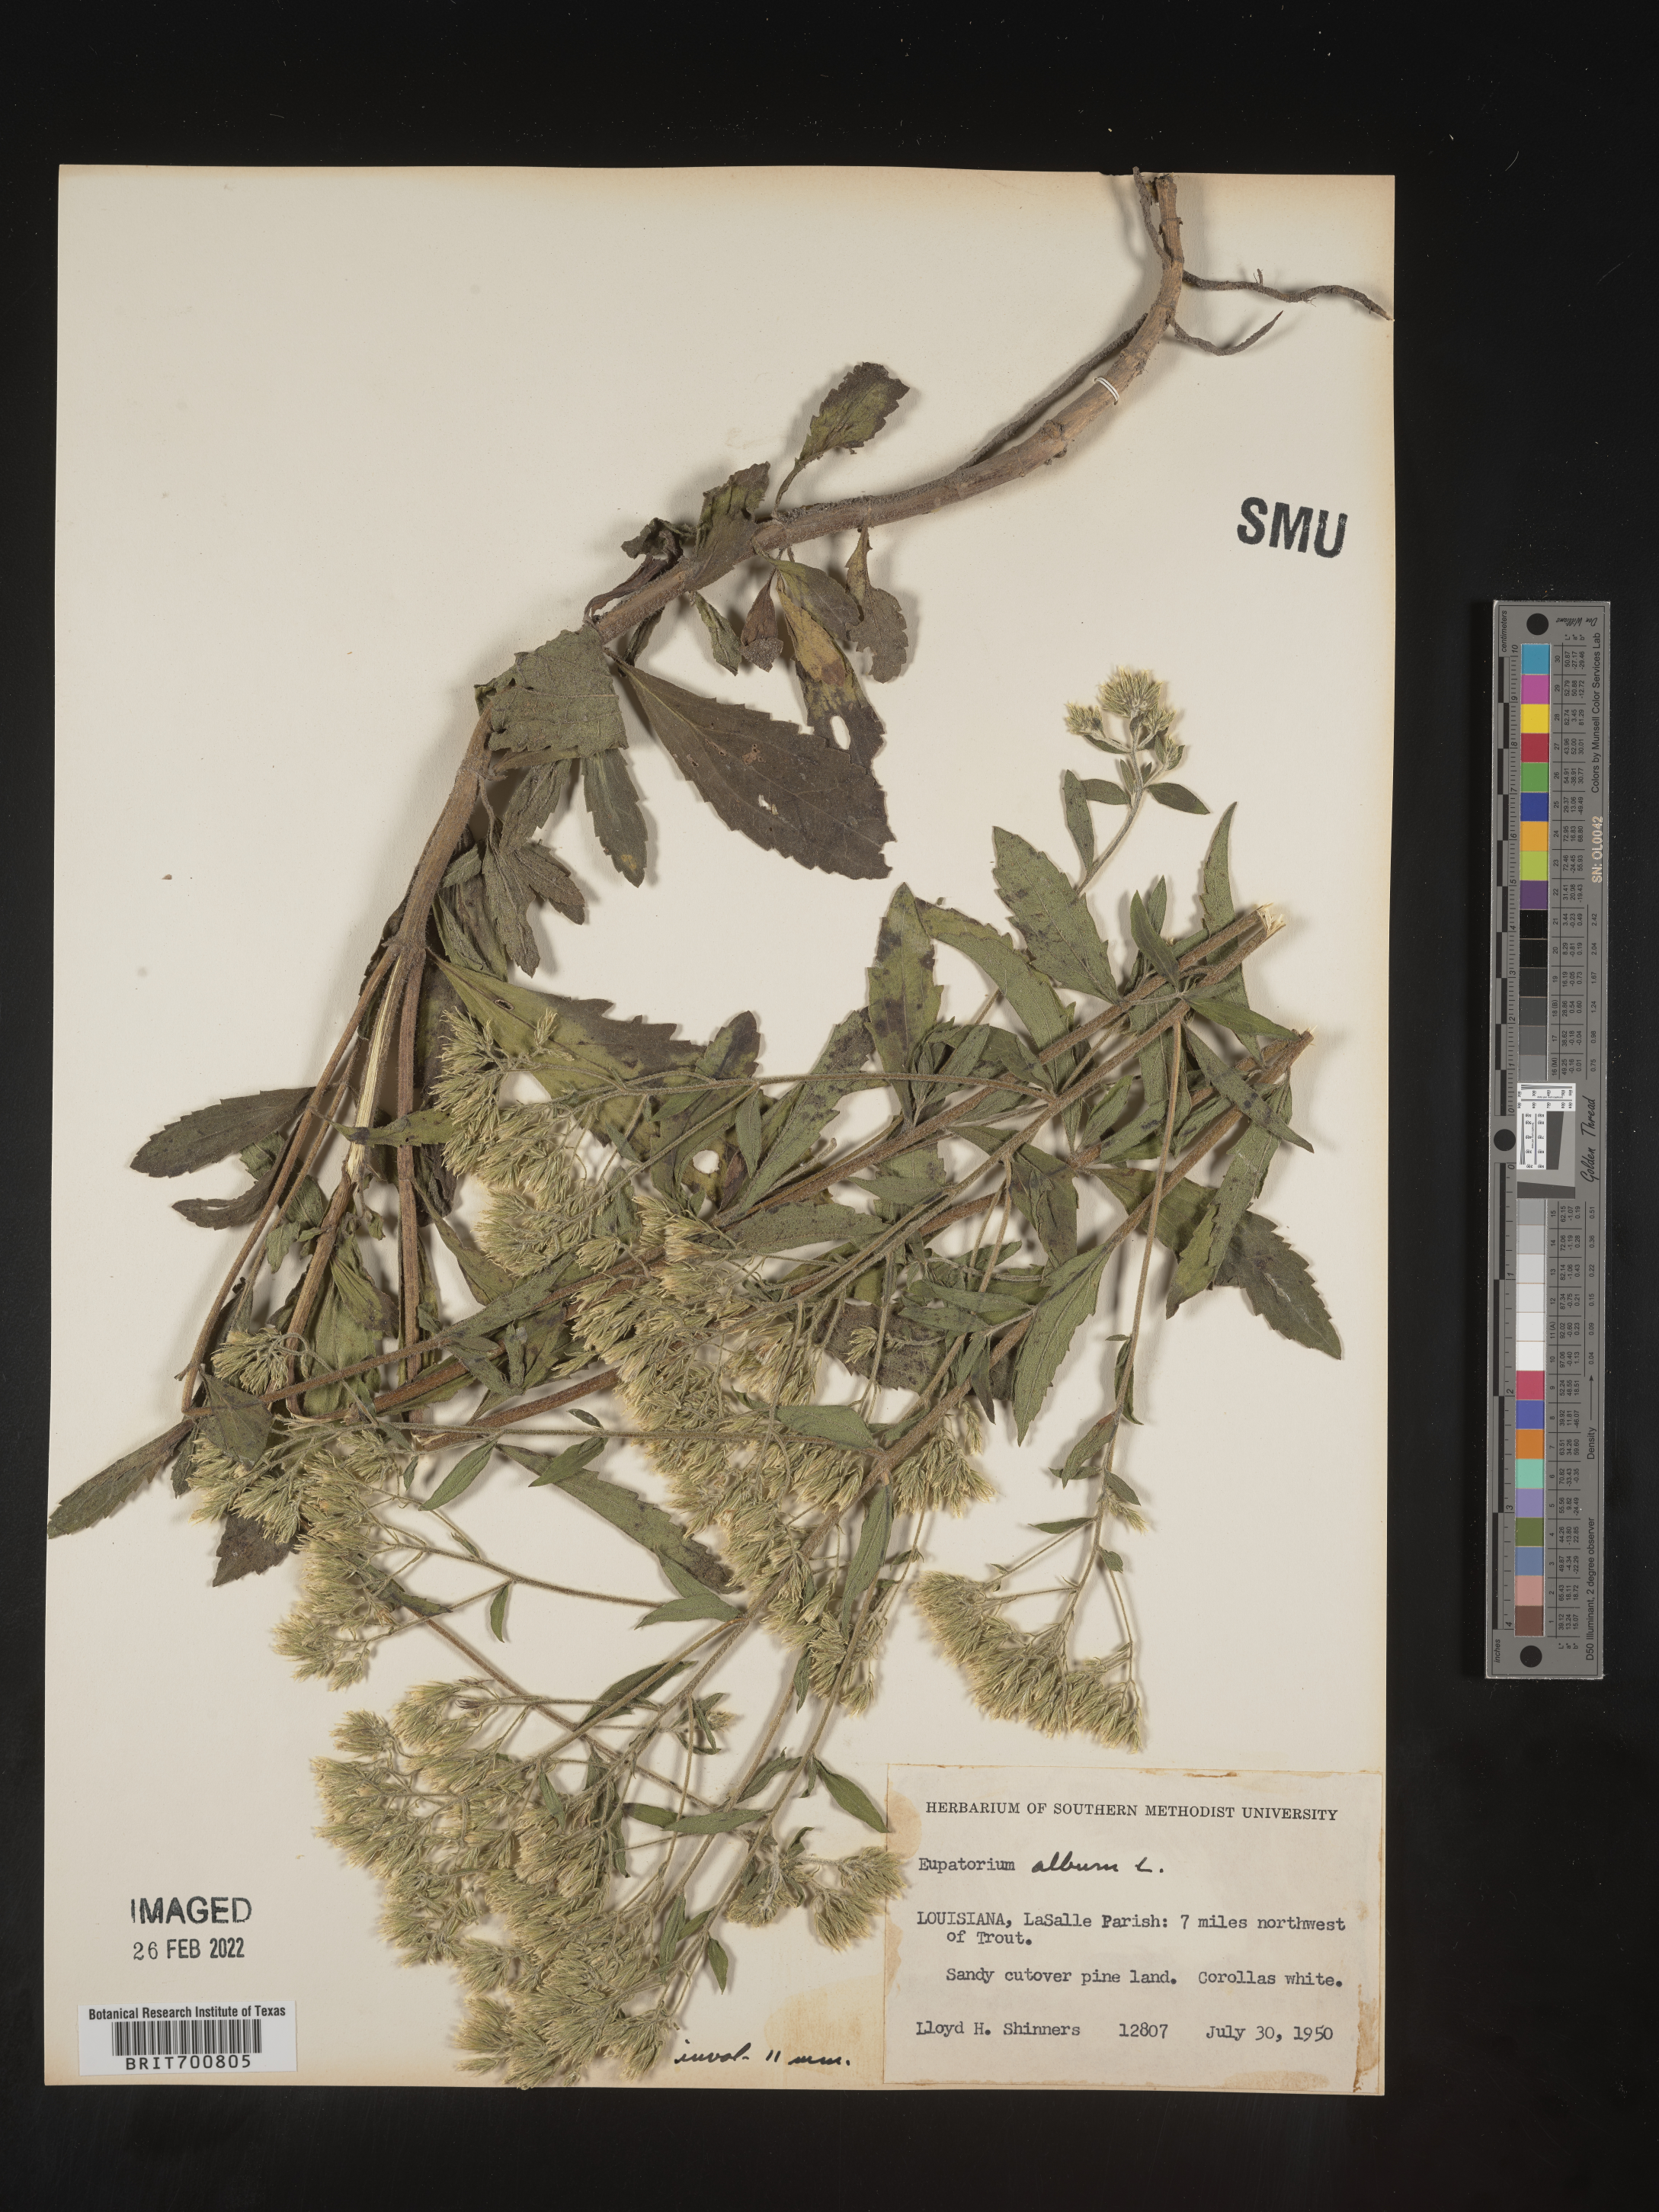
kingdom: Plantae
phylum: Tracheophyta
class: Magnoliopsida
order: Asterales
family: Asteraceae
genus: Eupatorium
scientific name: Eupatorium album
